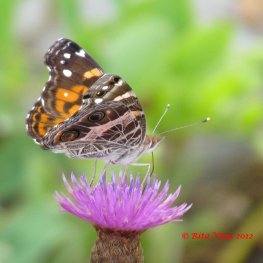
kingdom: Animalia
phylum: Arthropoda
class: Insecta
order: Lepidoptera
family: Nymphalidae
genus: Vanessa
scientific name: Vanessa virginiensis
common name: American Lady
